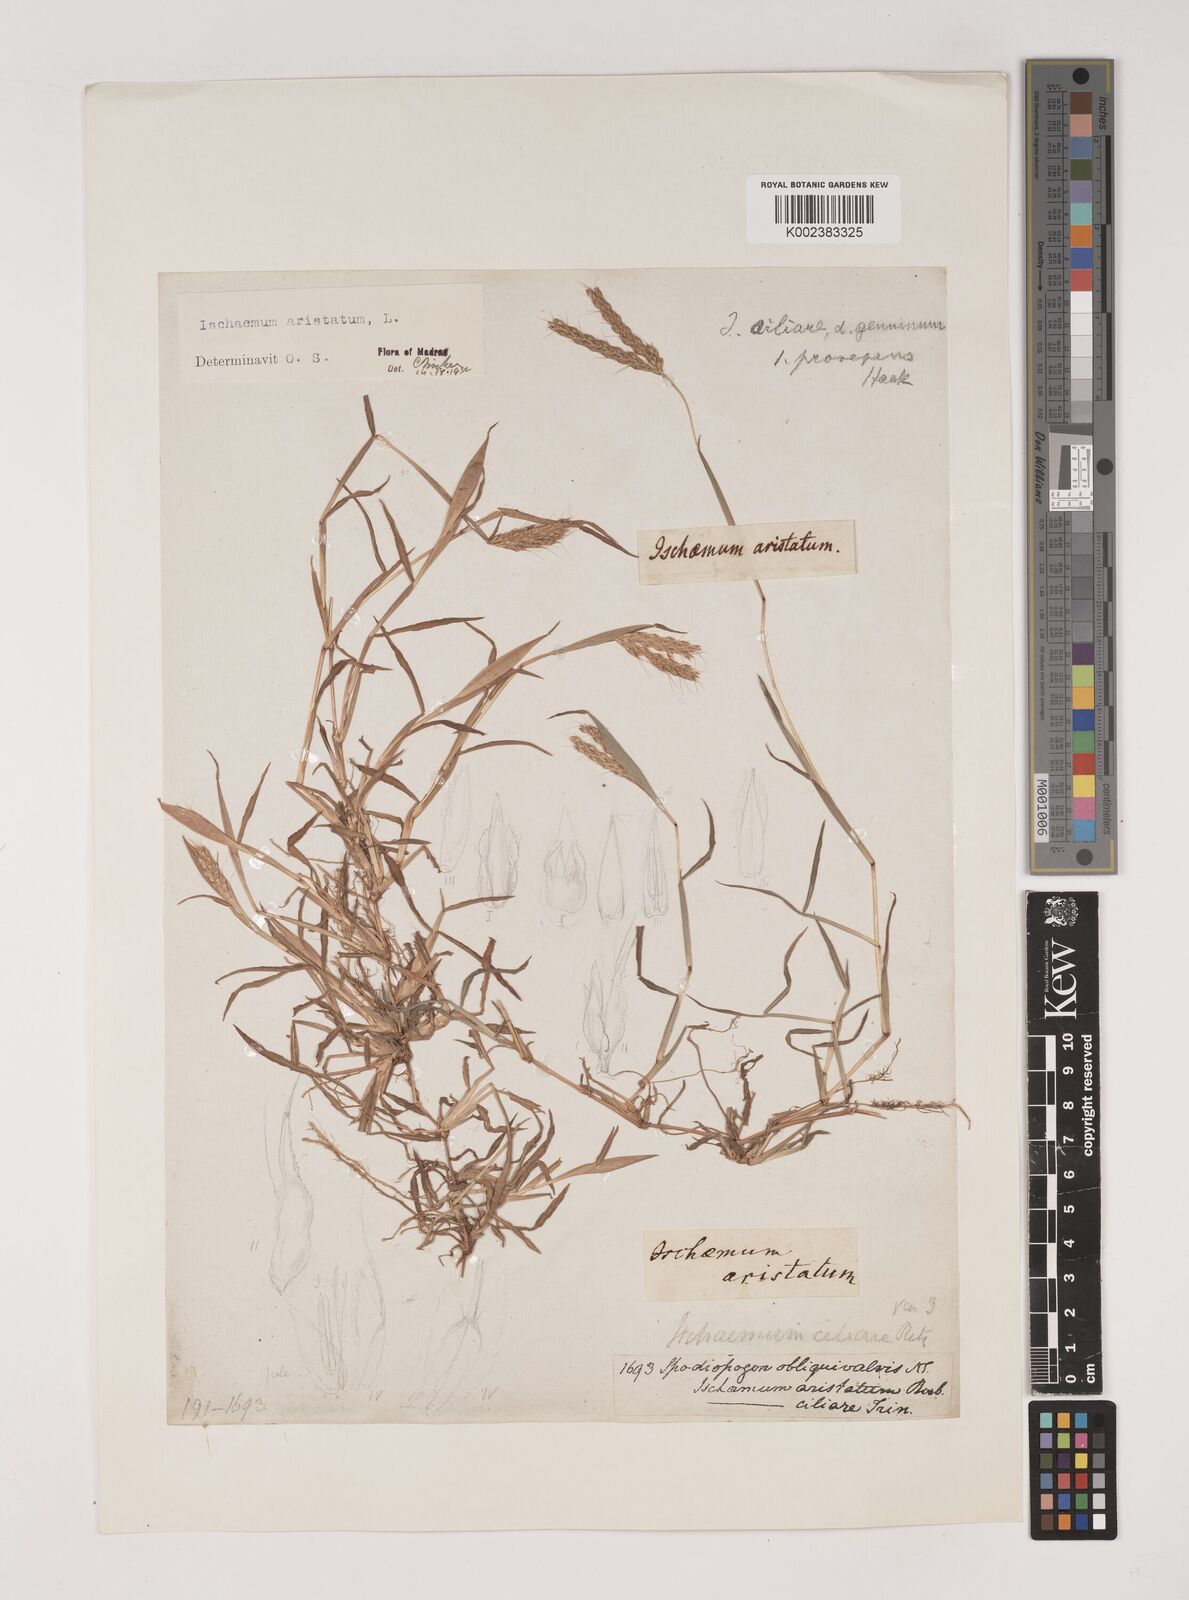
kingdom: Plantae
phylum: Tracheophyta
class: Liliopsida
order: Poales
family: Poaceae
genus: Polytrias
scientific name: Polytrias indica
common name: Indian murainagrass
